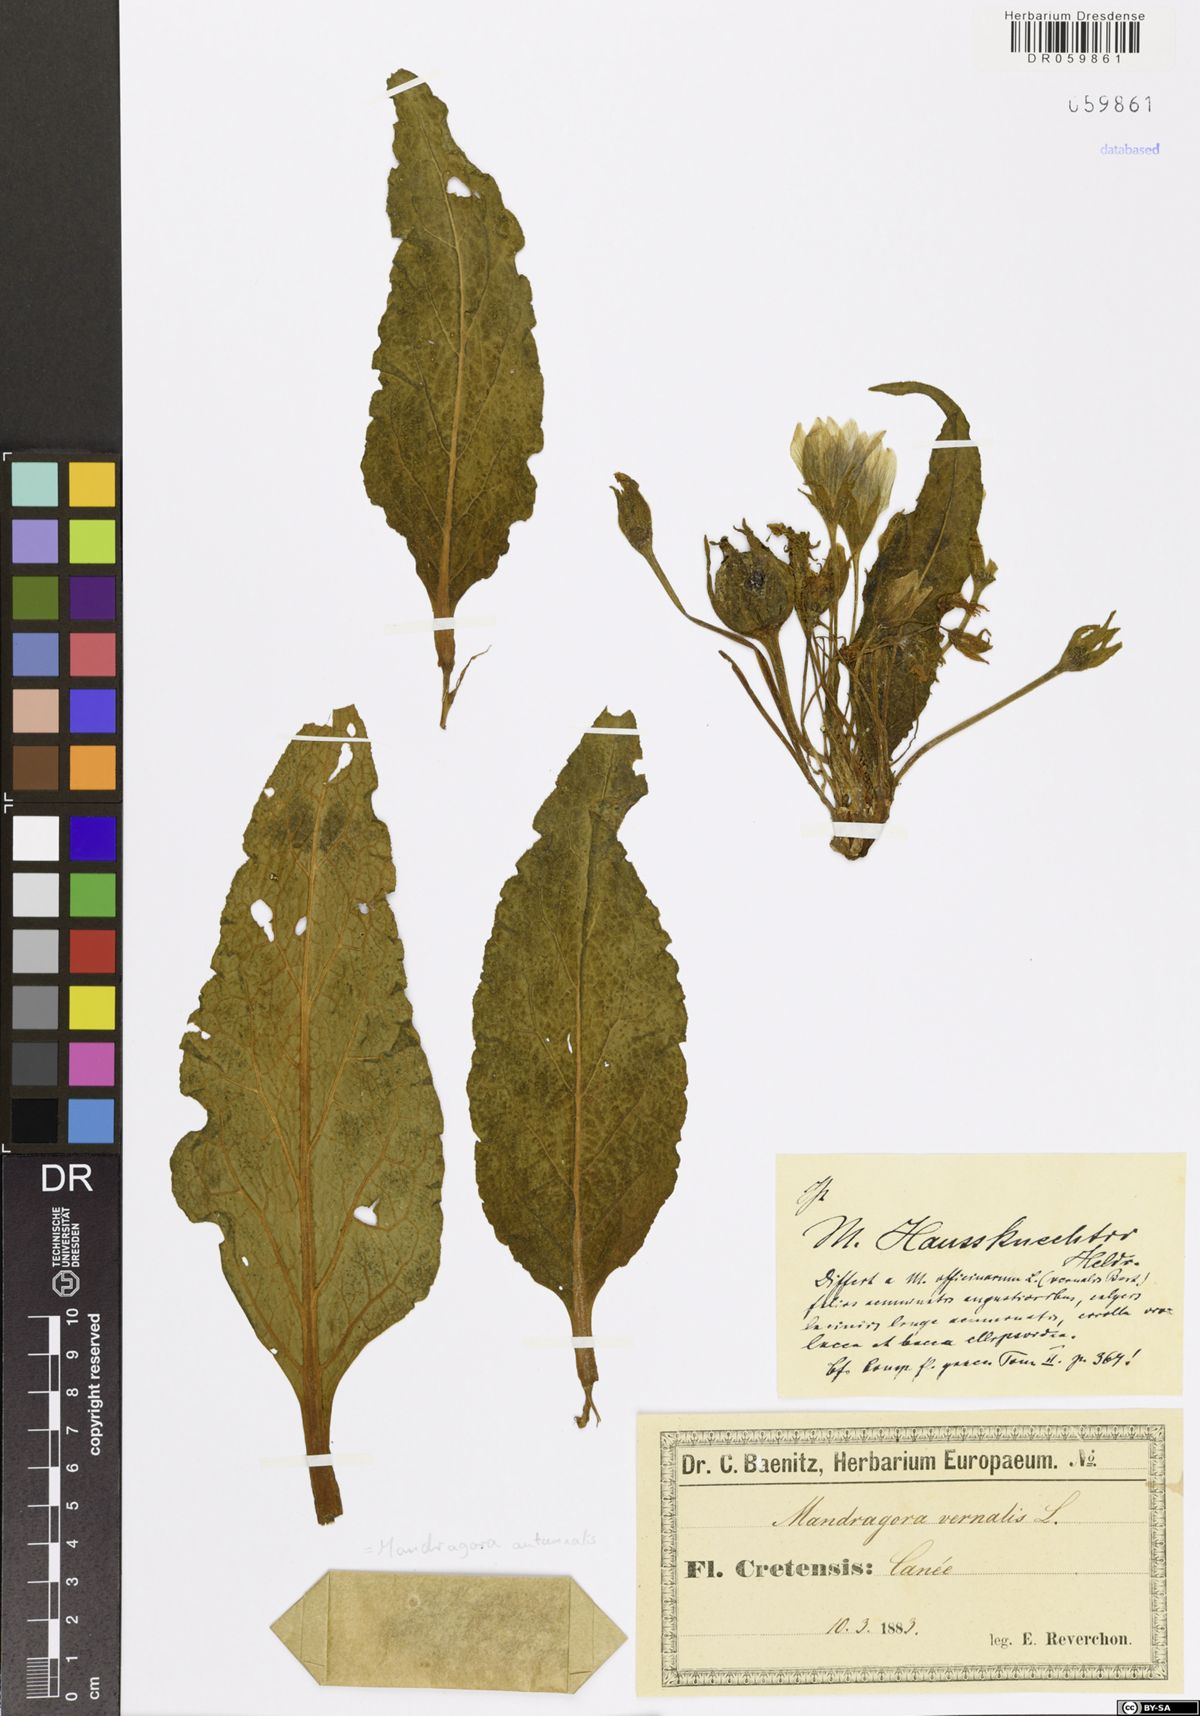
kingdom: Plantae
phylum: Tracheophyta
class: Magnoliopsida
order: Solanales
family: Solanaceae
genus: Mandragora
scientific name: Mandragora officinarum
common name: Mandrake
